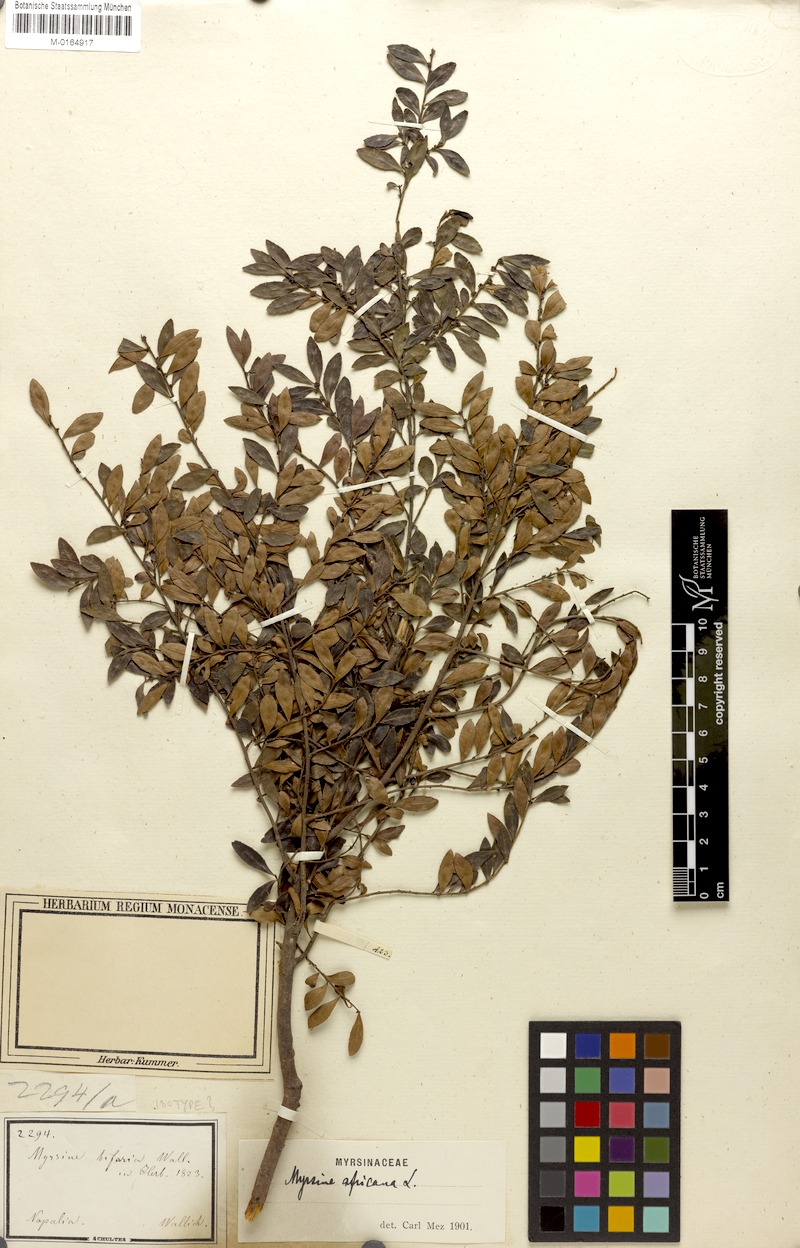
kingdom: Plantae
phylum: Tracheophyta
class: Magnoliopsida
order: Ericales
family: Primulaceae
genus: Myrsine
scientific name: Myrsine africana
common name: African-boxwood
